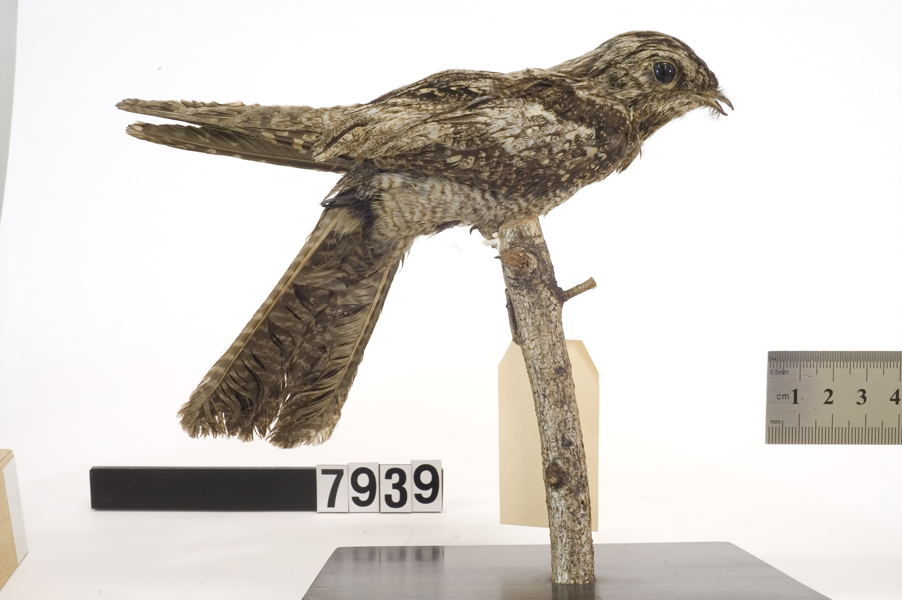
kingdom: Animalia
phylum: Chordata
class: Aves
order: Caprimulgiformes
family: Caprimulgidae
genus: Caprimulgus
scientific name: Caprimulgus europaeus
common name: European nightjar
